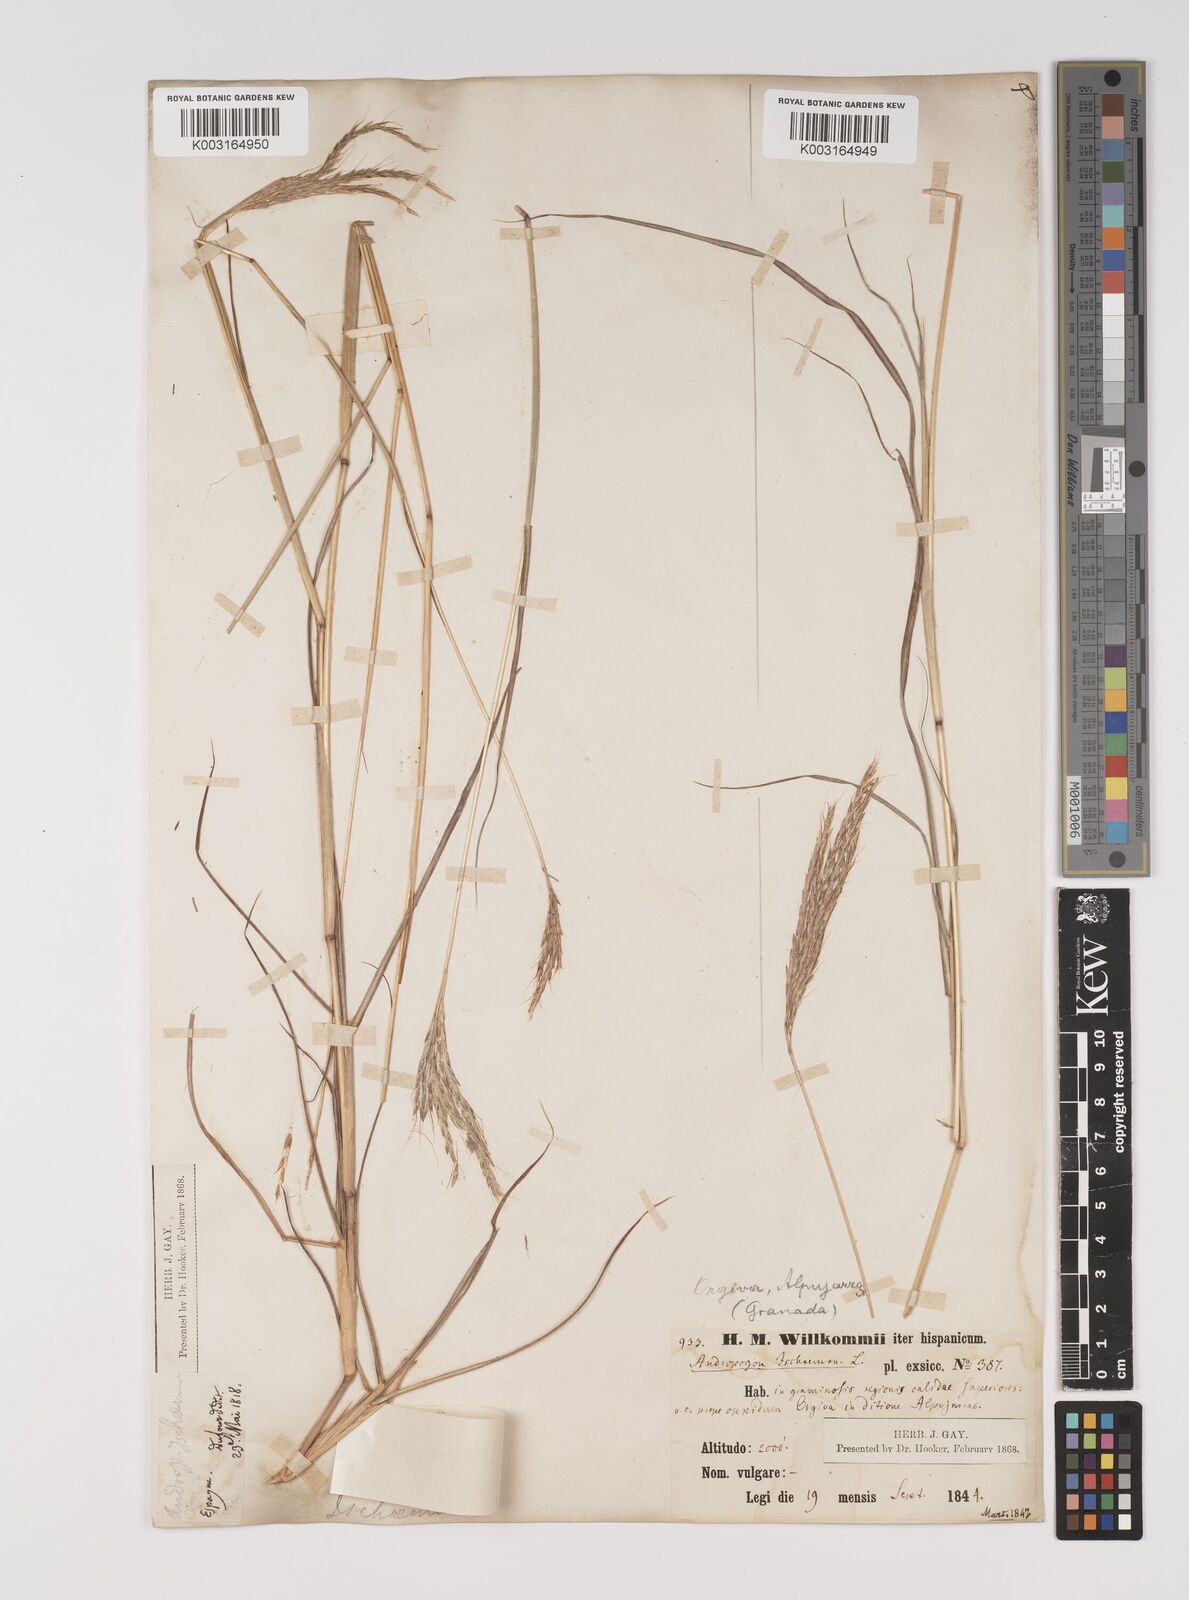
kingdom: Plantae
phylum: Tracheophyta
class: Liliopsida
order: Poales
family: Poaceae
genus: Bothriochloa
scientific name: Bothriochloa ischaemum
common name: Yellow bluestem
